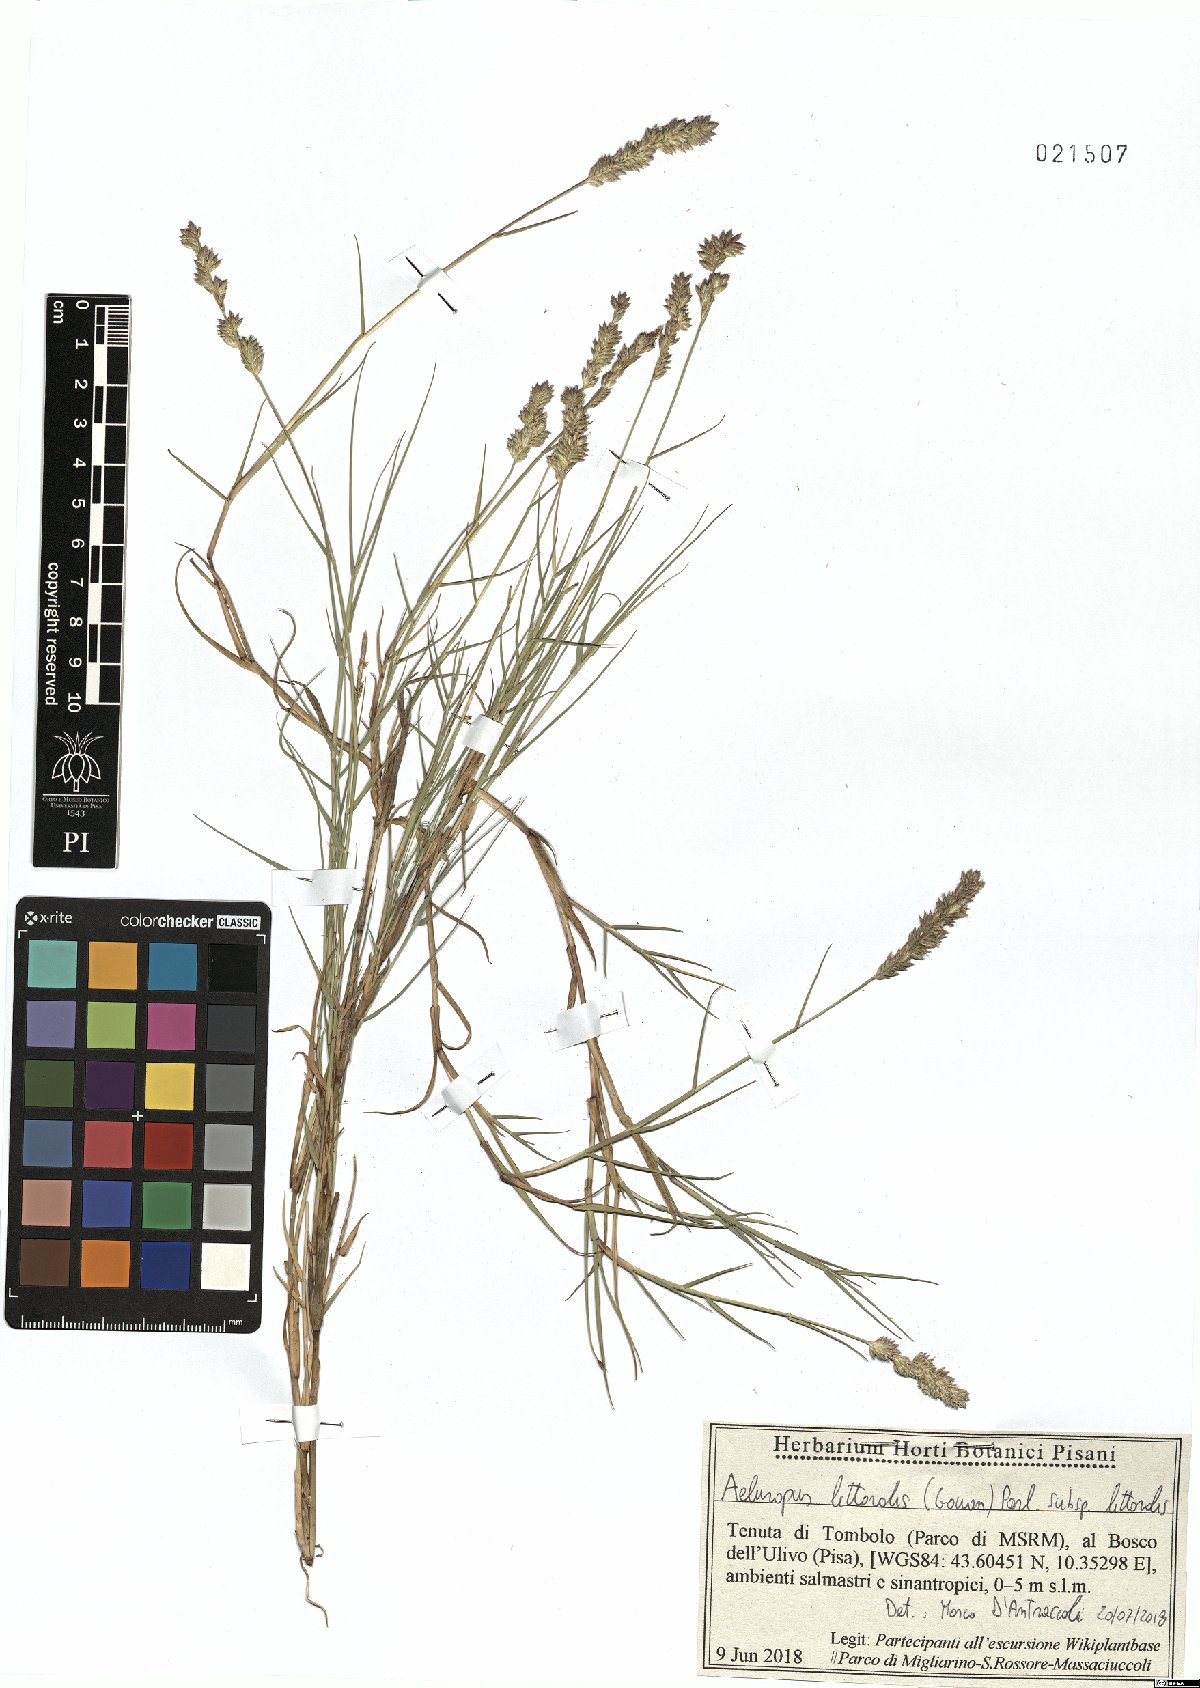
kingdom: Plantae
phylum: Tracheophyta
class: Liliopsida
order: Poales
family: Poaceae
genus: Aeluropus
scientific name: Aeluropus littoralis
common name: Indian walnut
